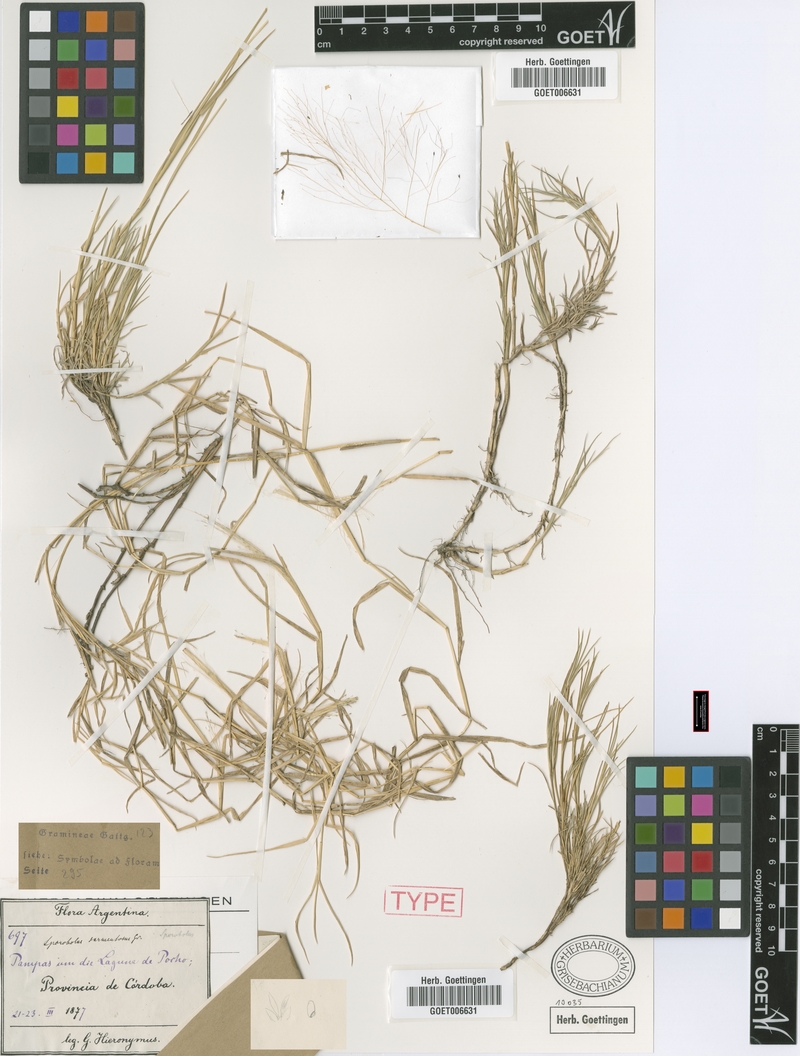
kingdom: Plantae
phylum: Tracheophyta
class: Liliopsida
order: Poales
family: Poaceae
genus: Muhlenbergia
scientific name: Muhlenbergia asperifolia
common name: Alkali muhly
